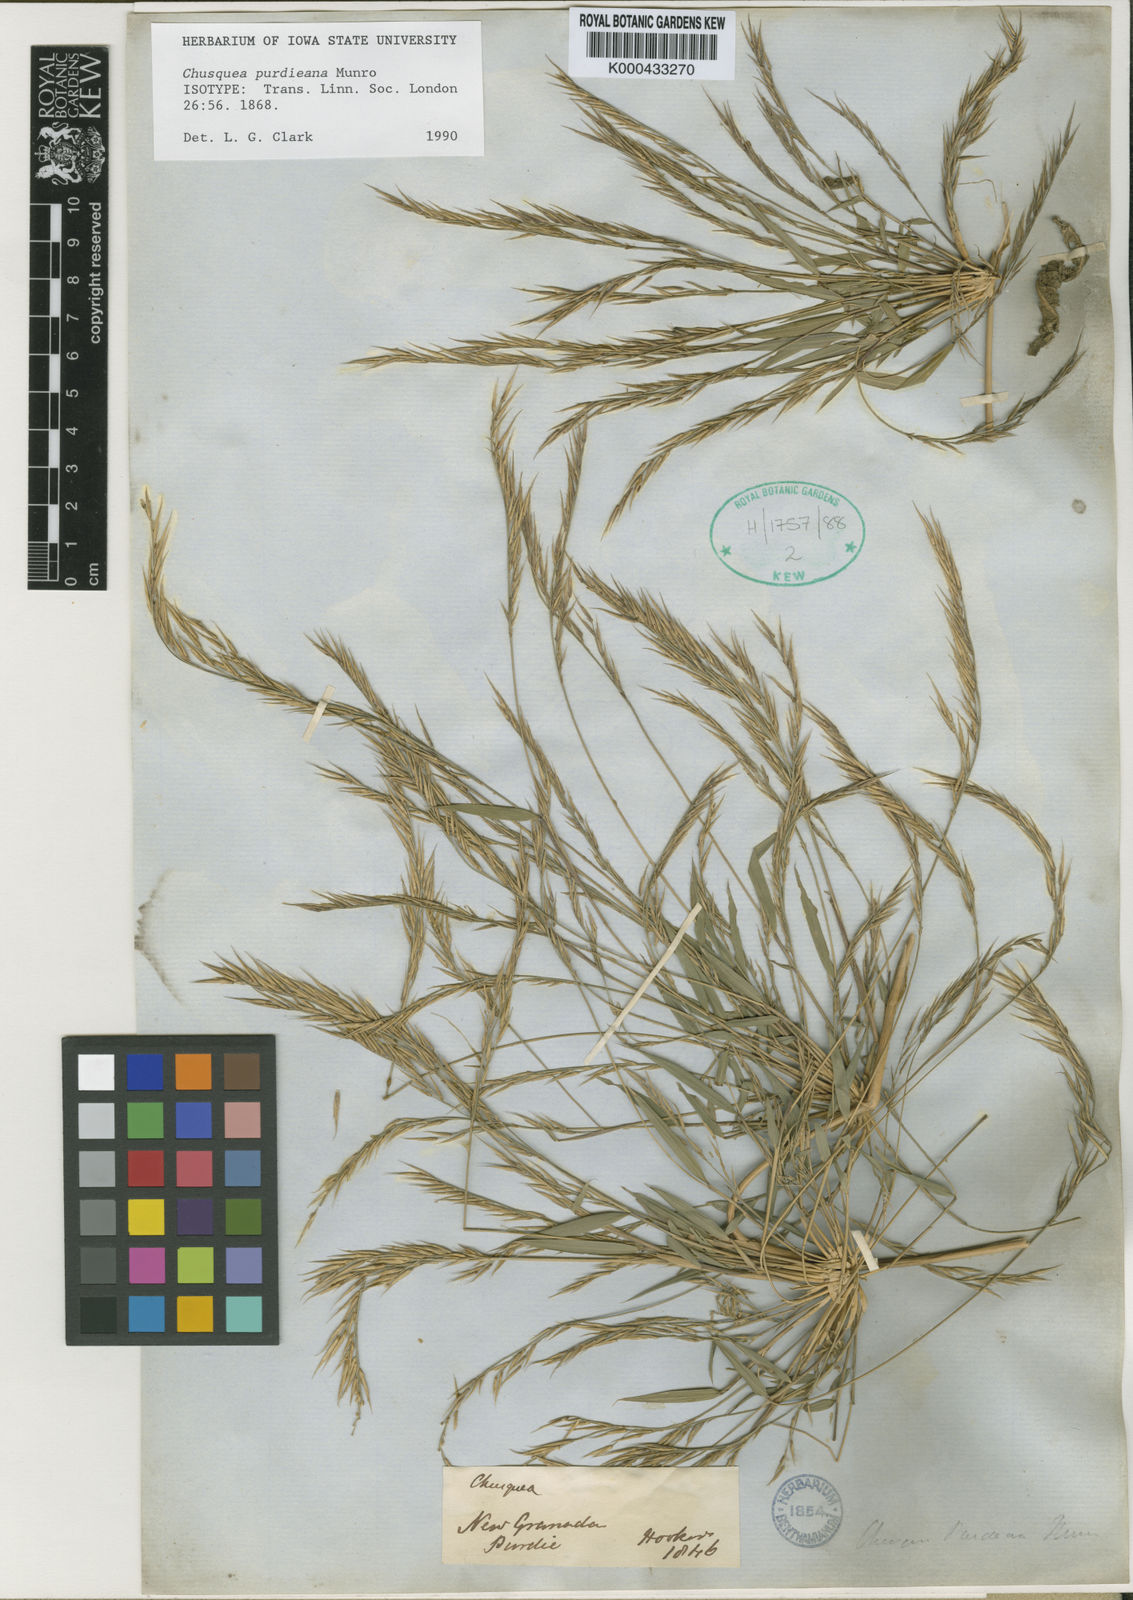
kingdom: Plantae
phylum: Tracheophyta
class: Liliopsida
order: Poales
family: Poaceae
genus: Chusquea
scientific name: Chusquea purdieana
